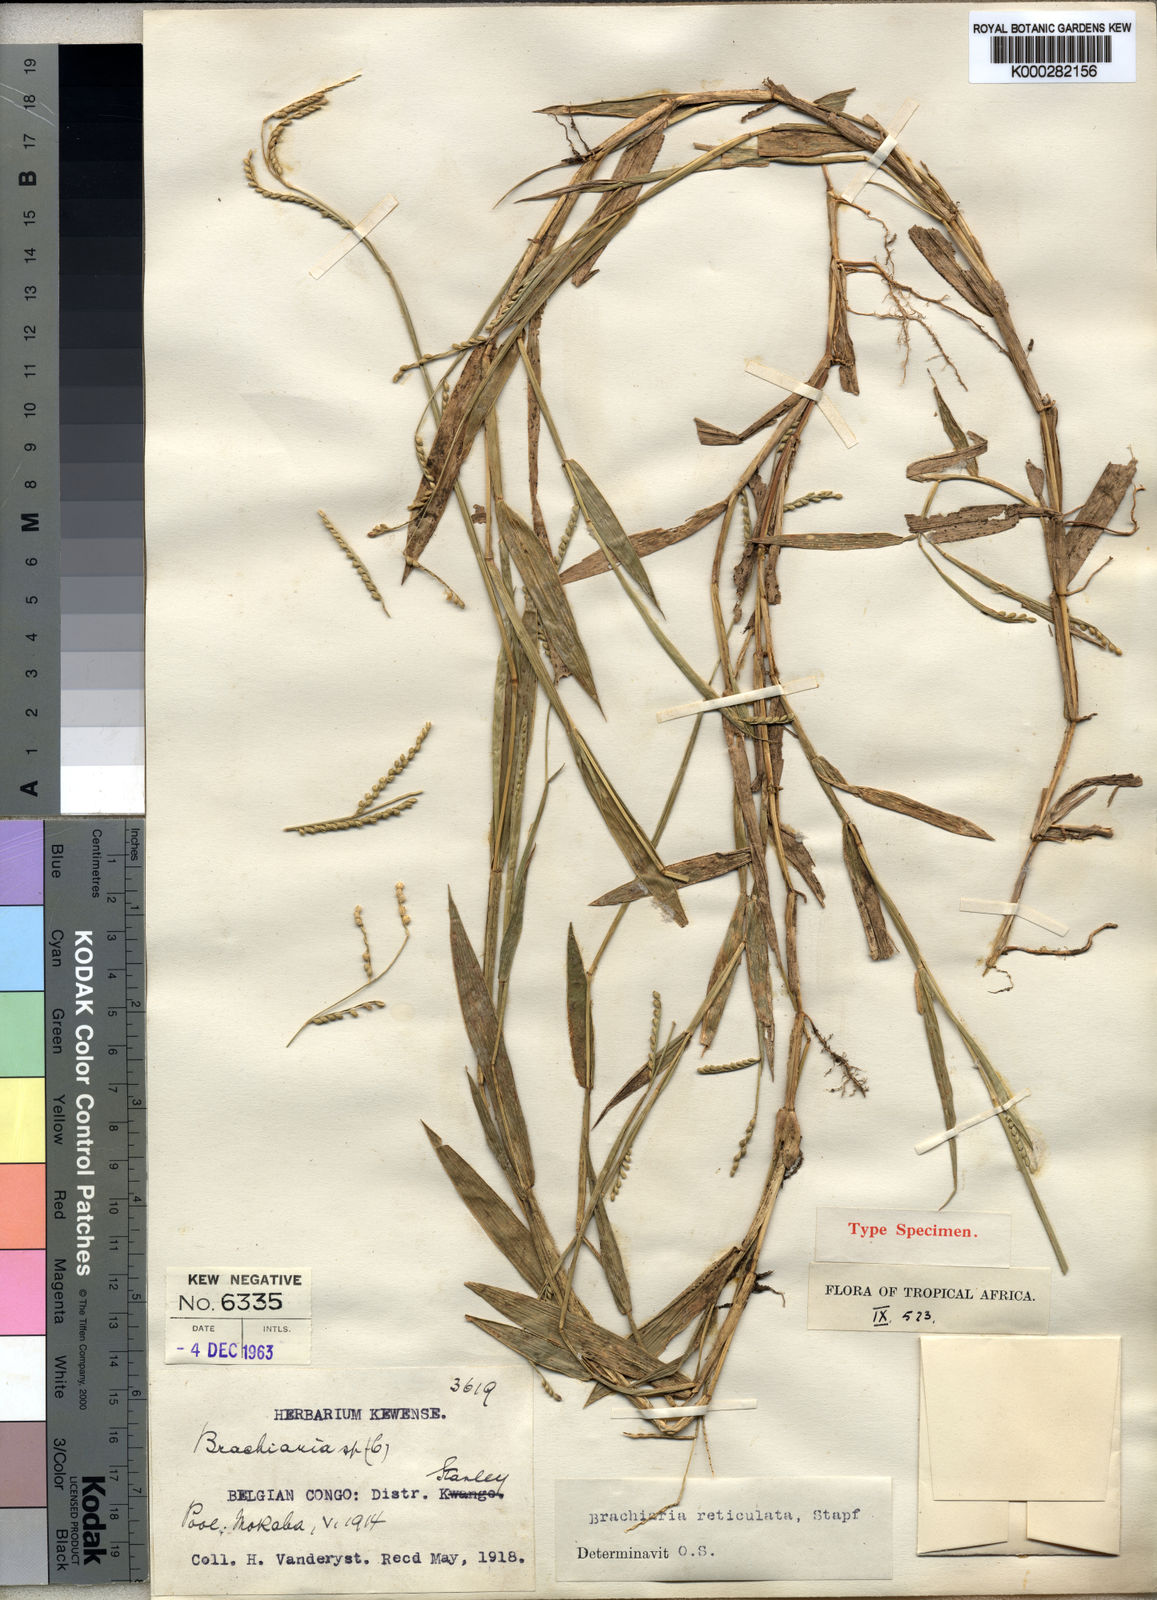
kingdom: Plantae
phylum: Tracheophyta
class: Liliopsida
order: Poales
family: Poaceae
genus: Urochloa
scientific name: Urochloa reticulata
